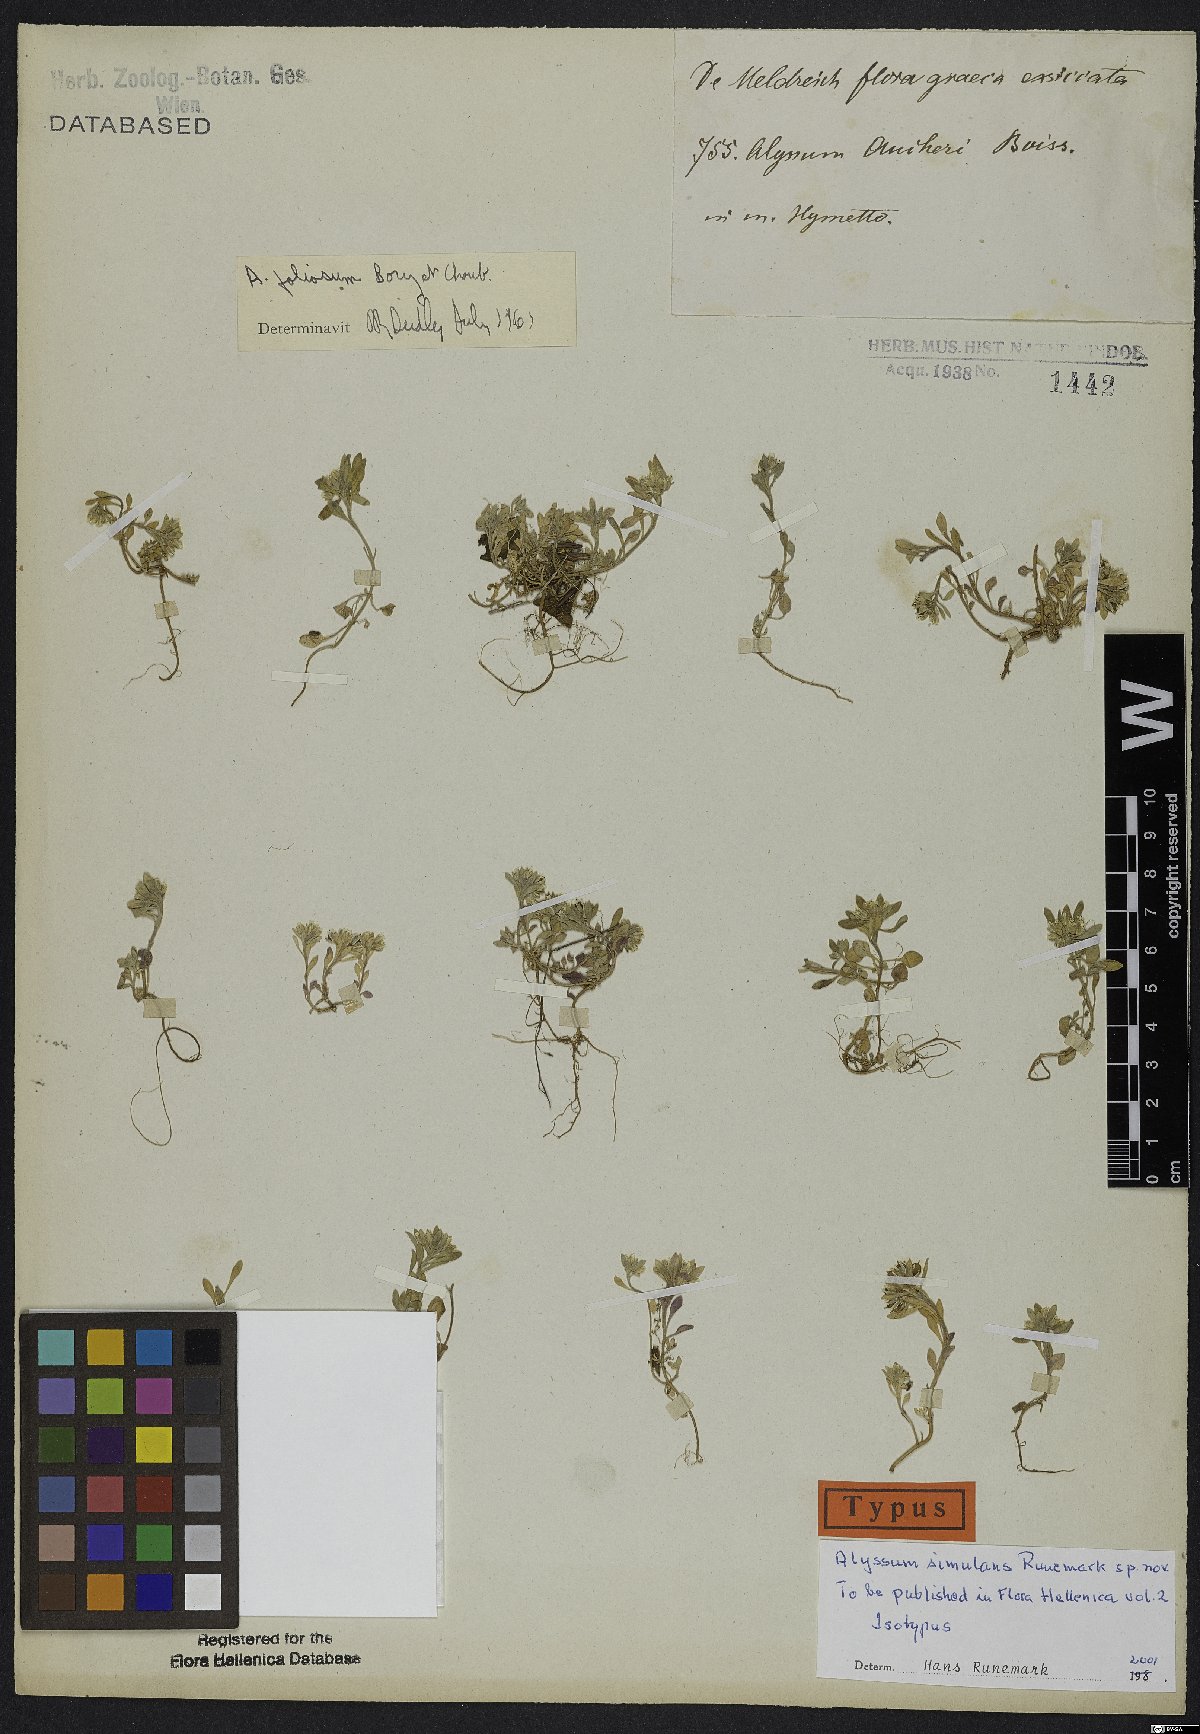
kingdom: Plantae
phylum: Tracheophyta
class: Magnoliopsida
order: Brassicales
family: Brassicaceae
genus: Alyssum
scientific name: Alyssum simulans
